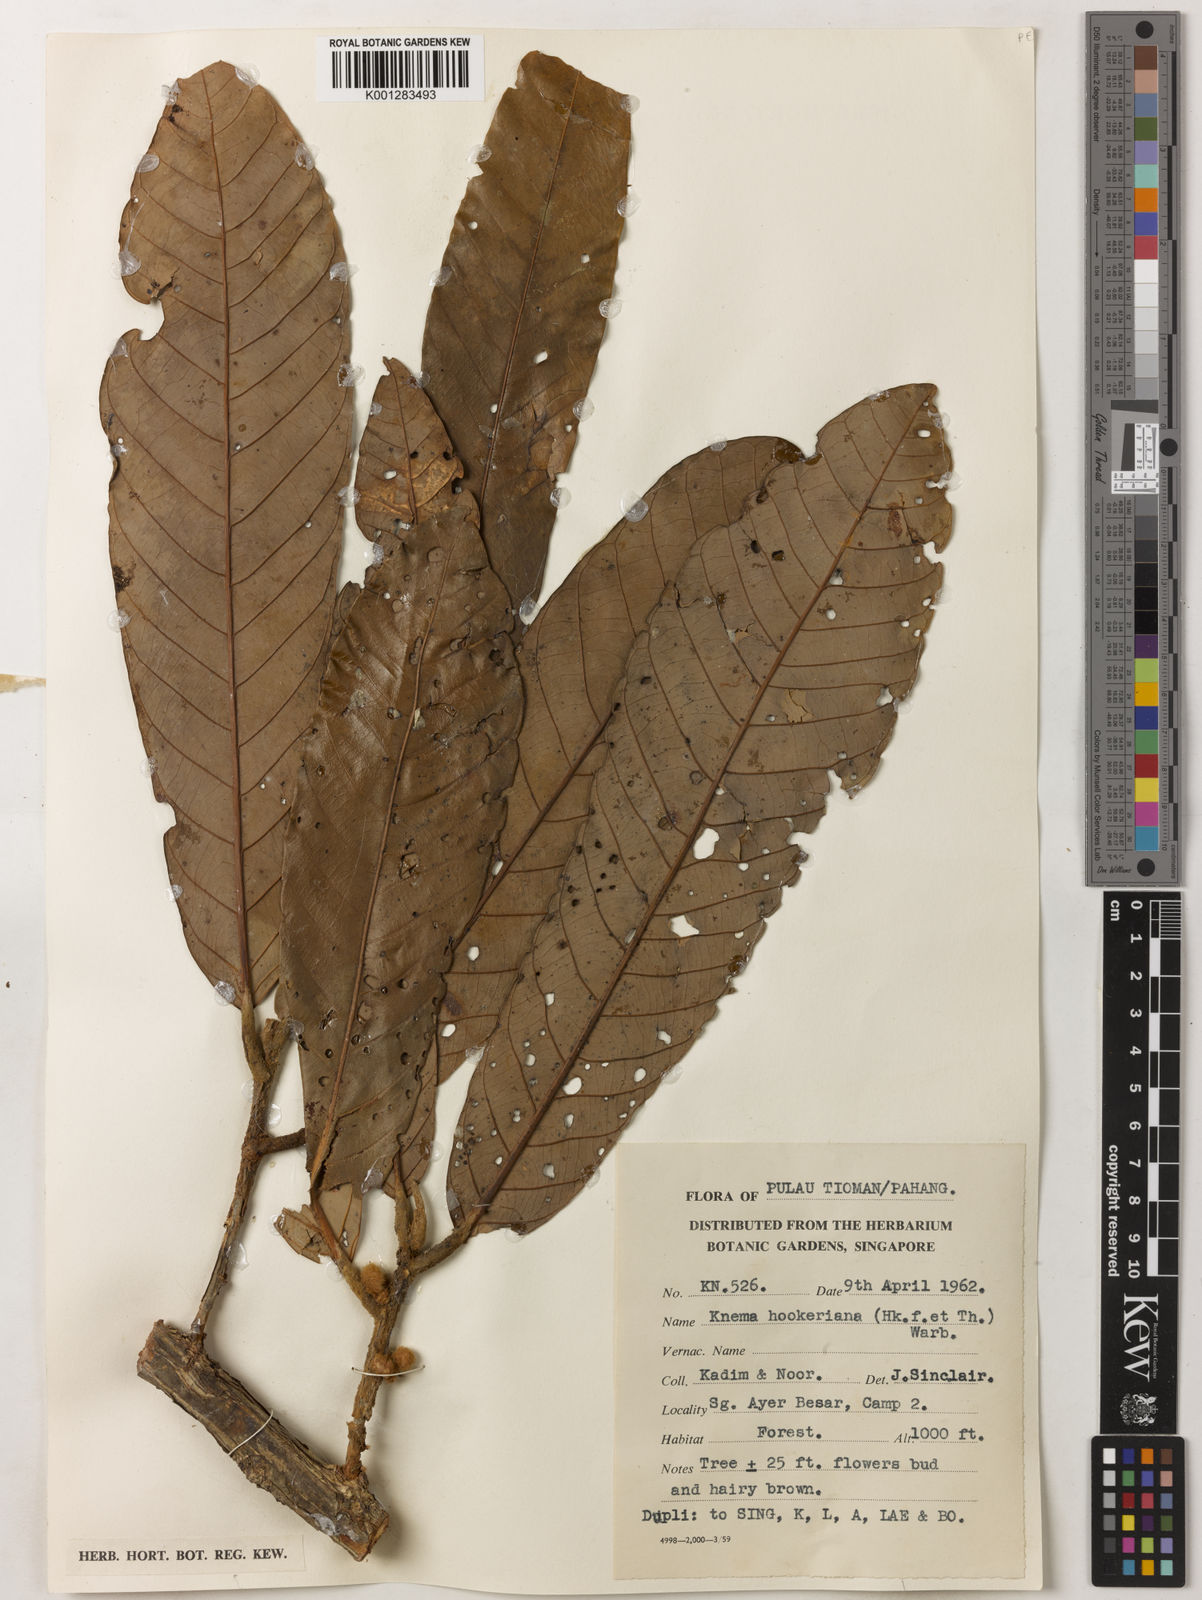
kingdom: Plantae
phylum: Tracheophyta
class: Magnoliopsida
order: Magnoliales
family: Myristicaceae
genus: Knema
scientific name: Knema hookeriana
